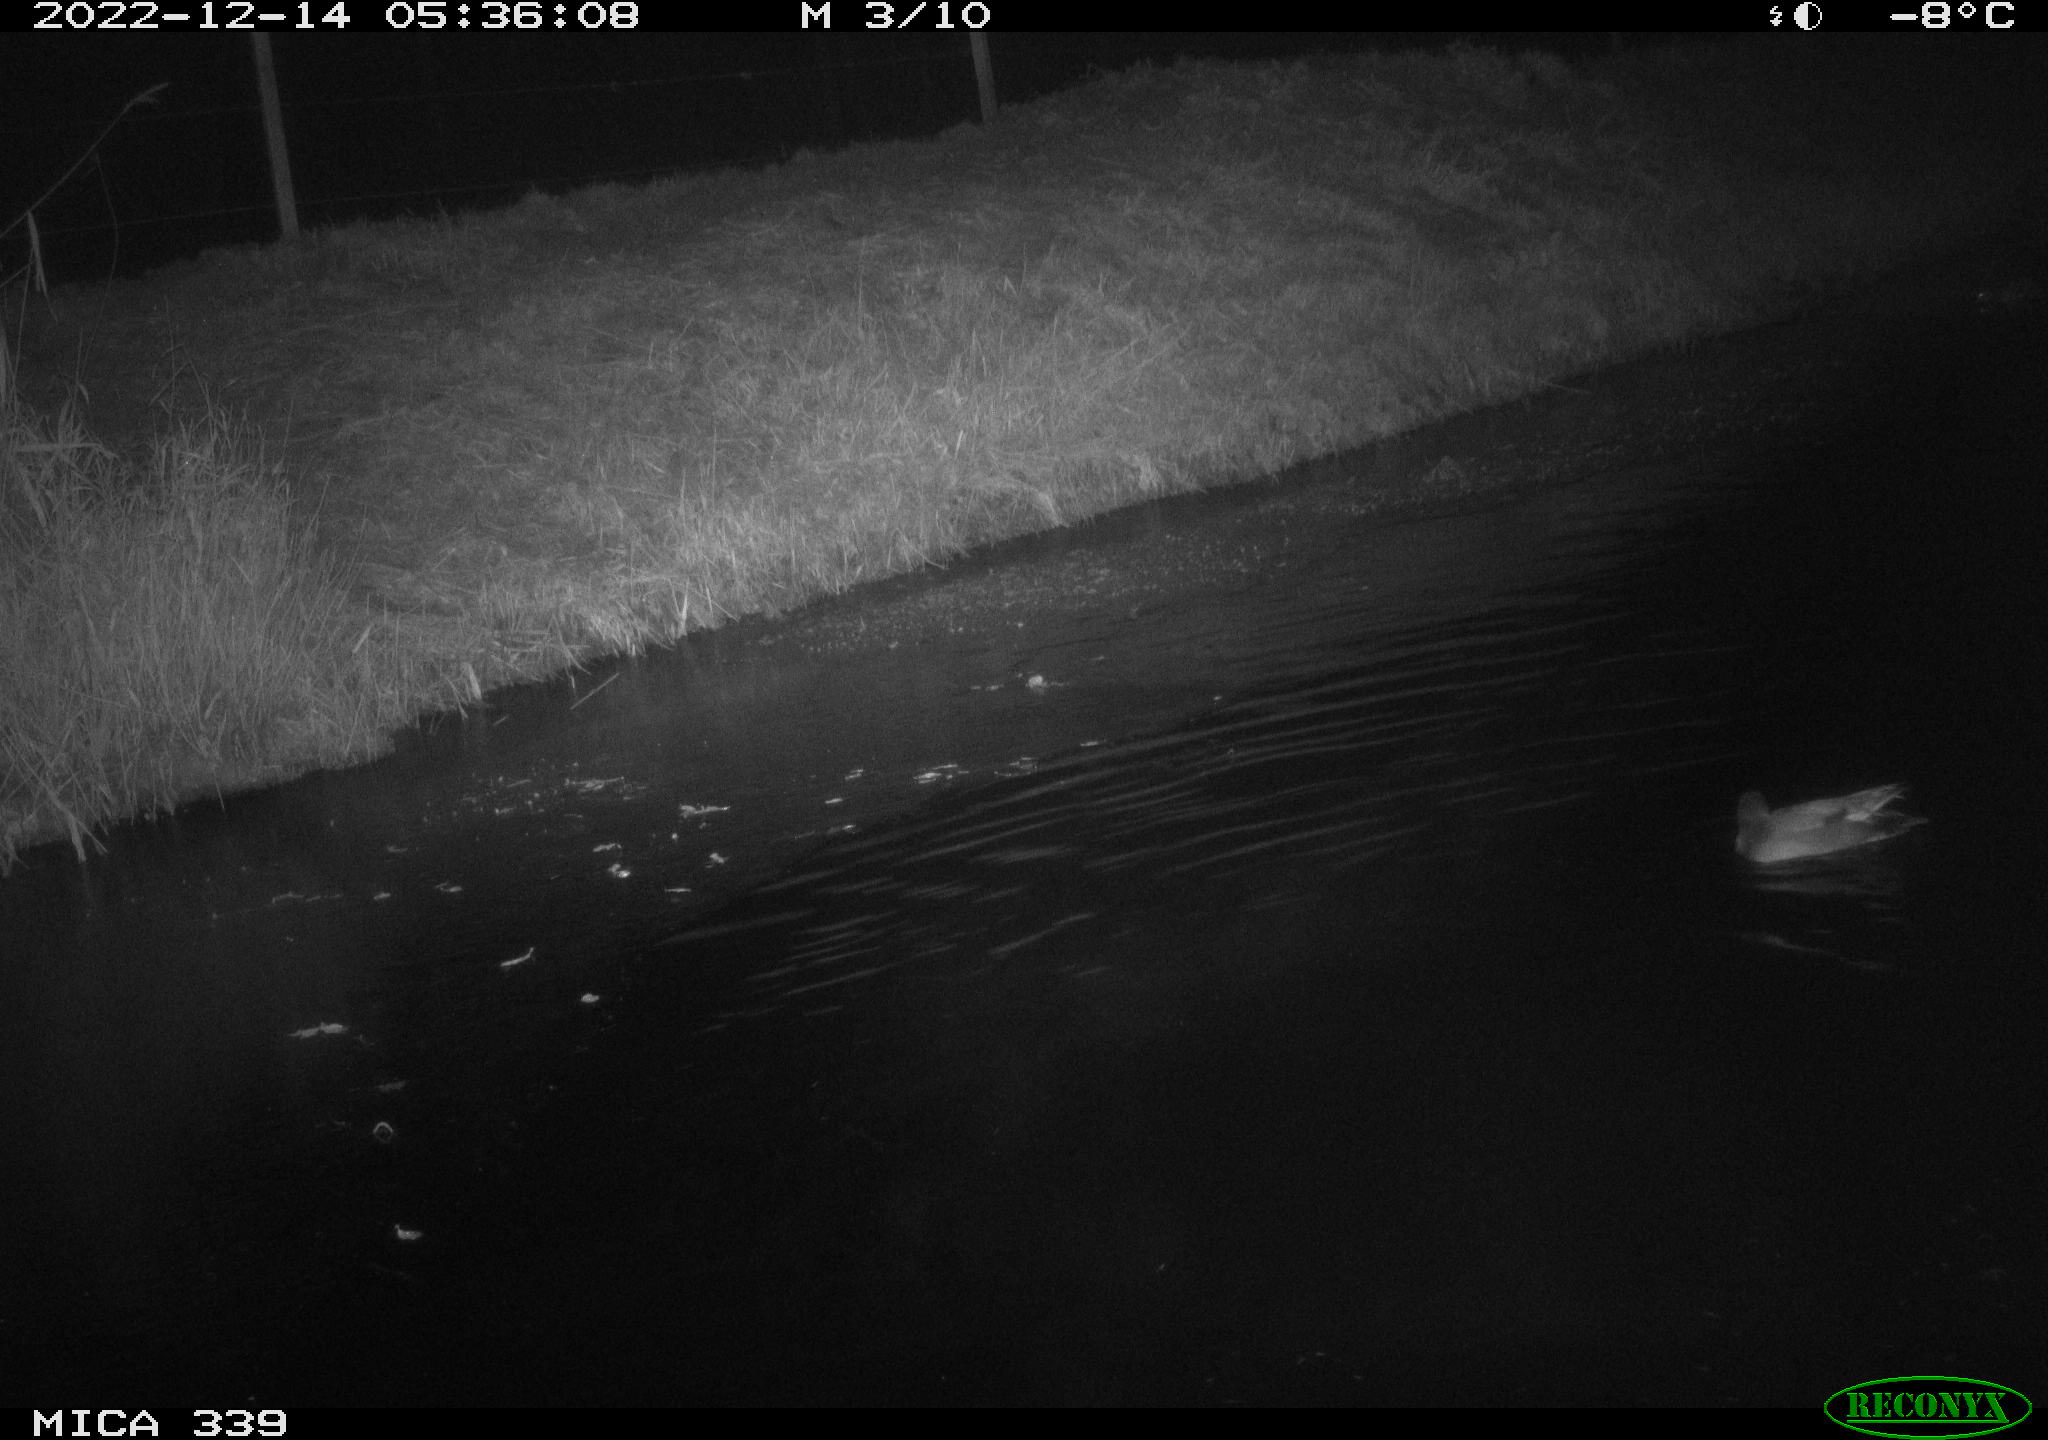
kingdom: Animalia
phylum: Chordata
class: Aves
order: Anseriformes
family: Anatidae
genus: Anas
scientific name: Anas
